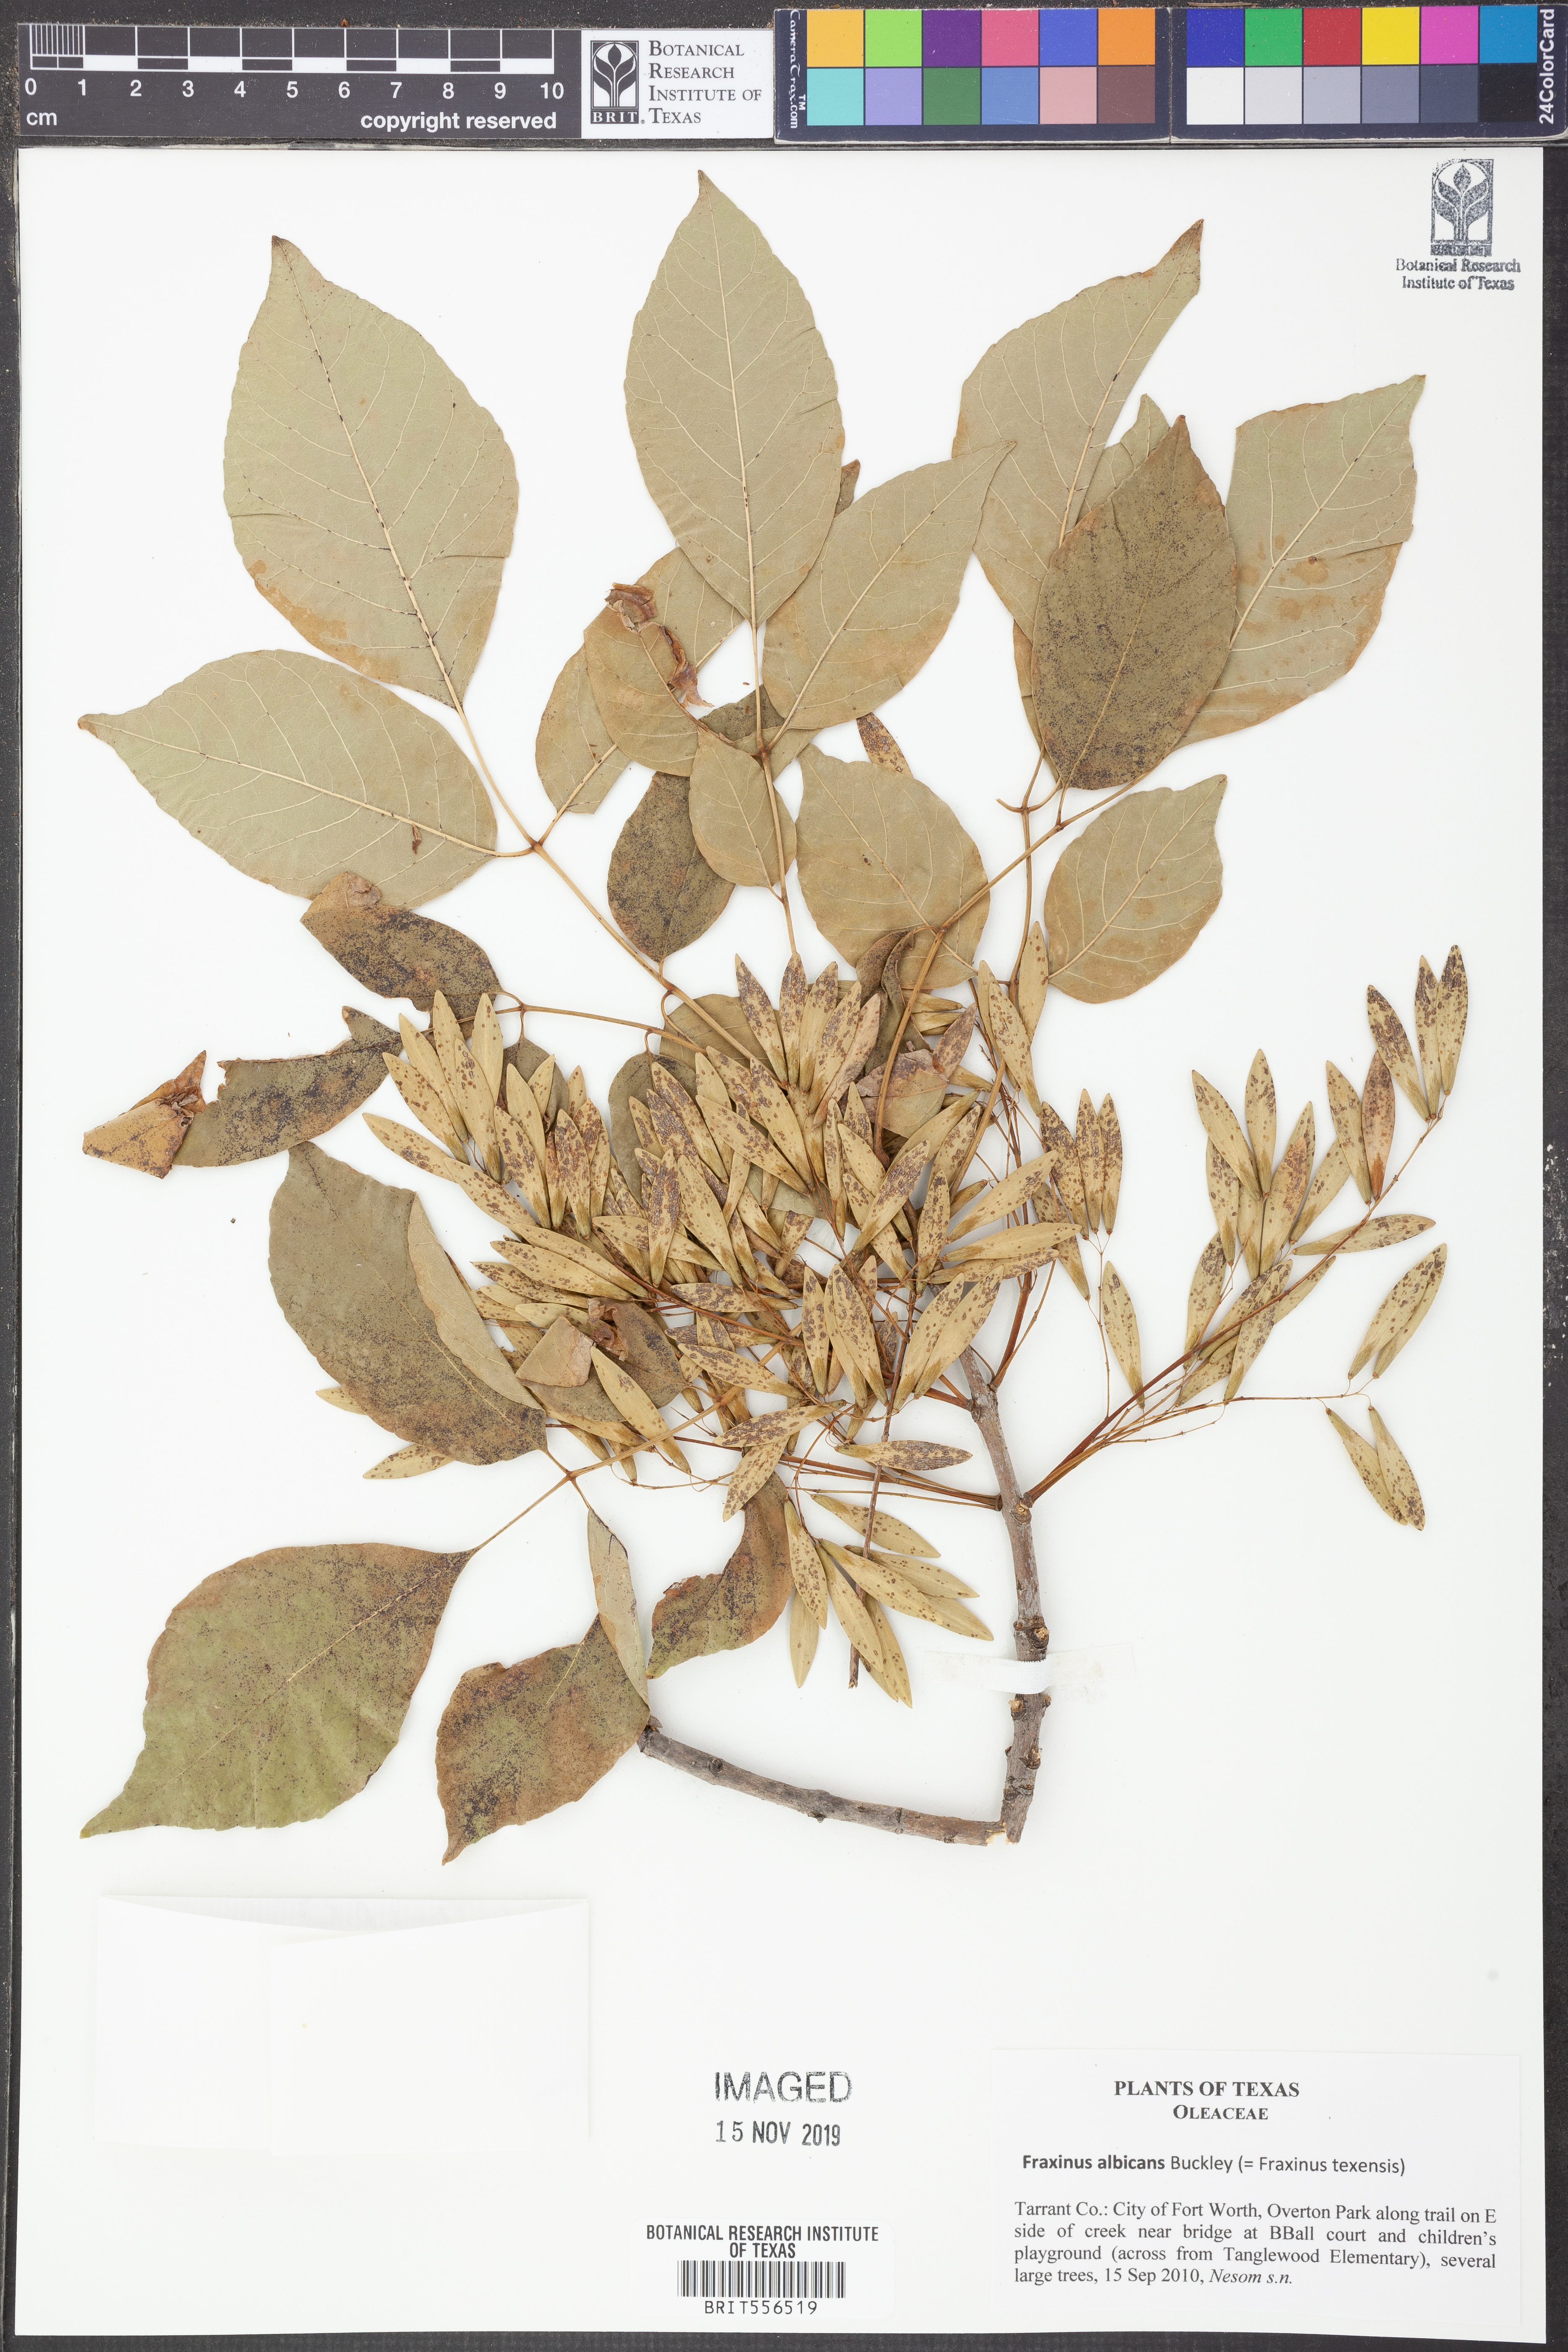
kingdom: Plantae
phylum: Tracheophyta
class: Magnoliopsida
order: Lamiales
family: Oleaceae
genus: Fraxinus
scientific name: Fraxinus albicans
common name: Texas ash
